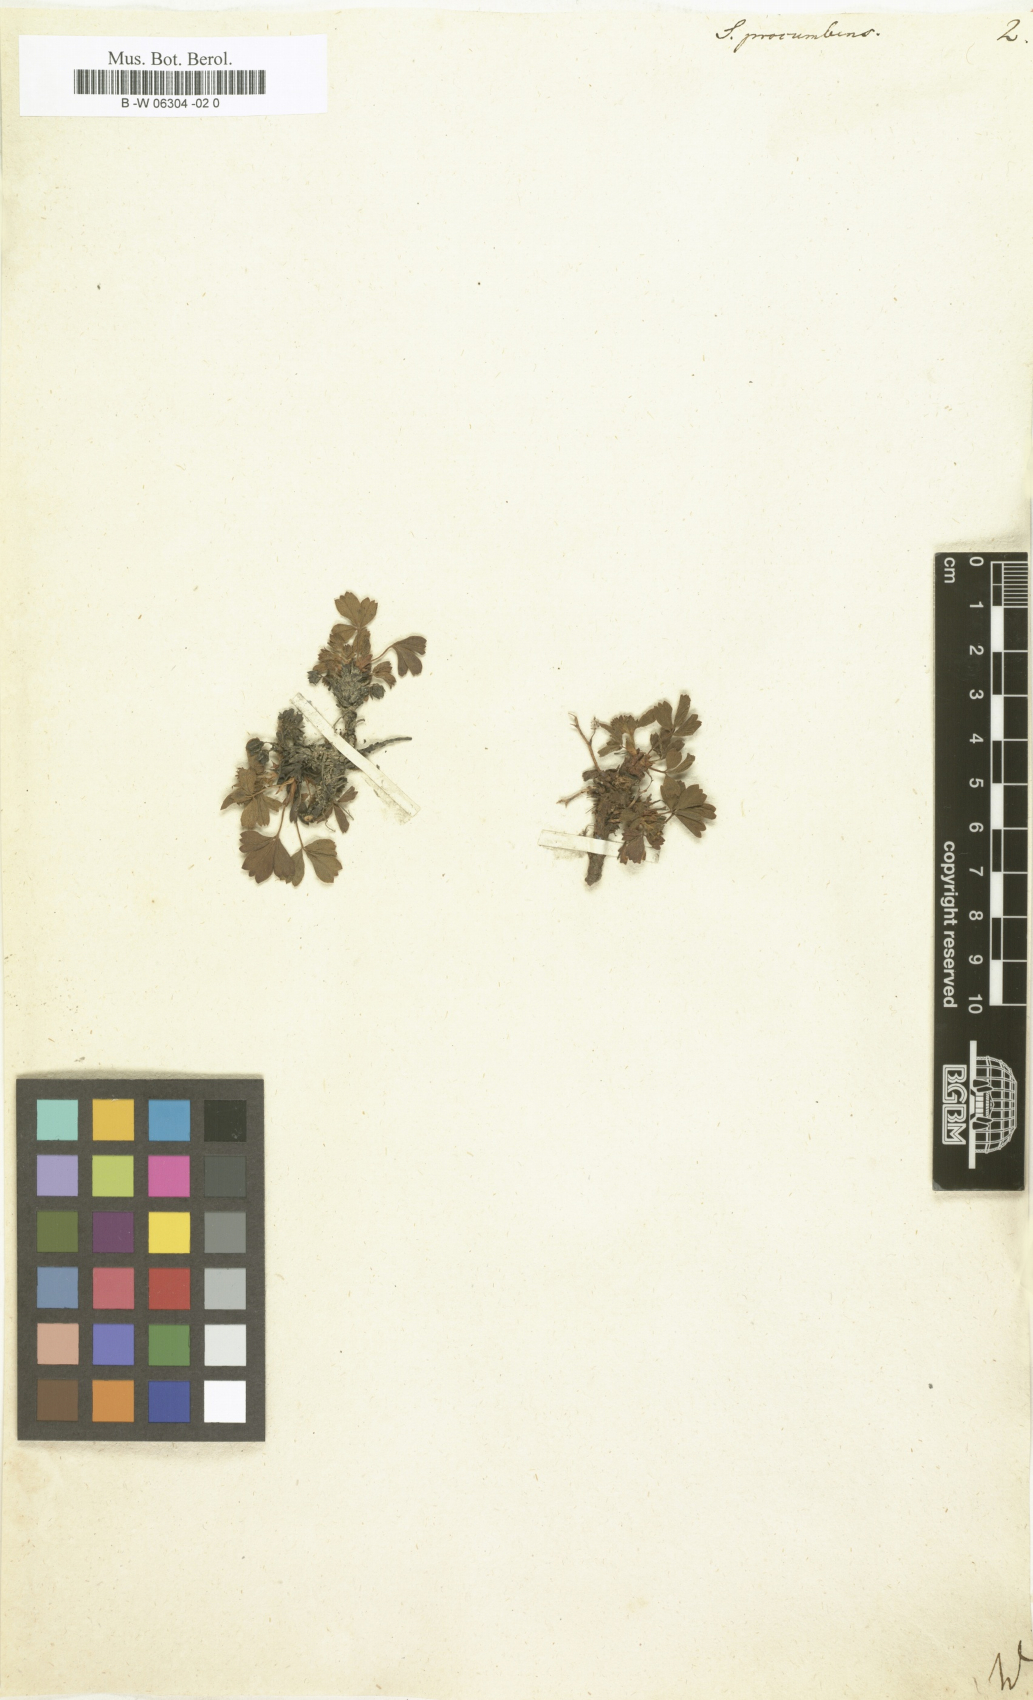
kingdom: Plantae
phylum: Tracheophyta
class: Magnoliopsida
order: Rosales
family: Rosaceae
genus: Sibbaldia
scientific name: Sibbaldia procumbens
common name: Creeping sibbaldia
